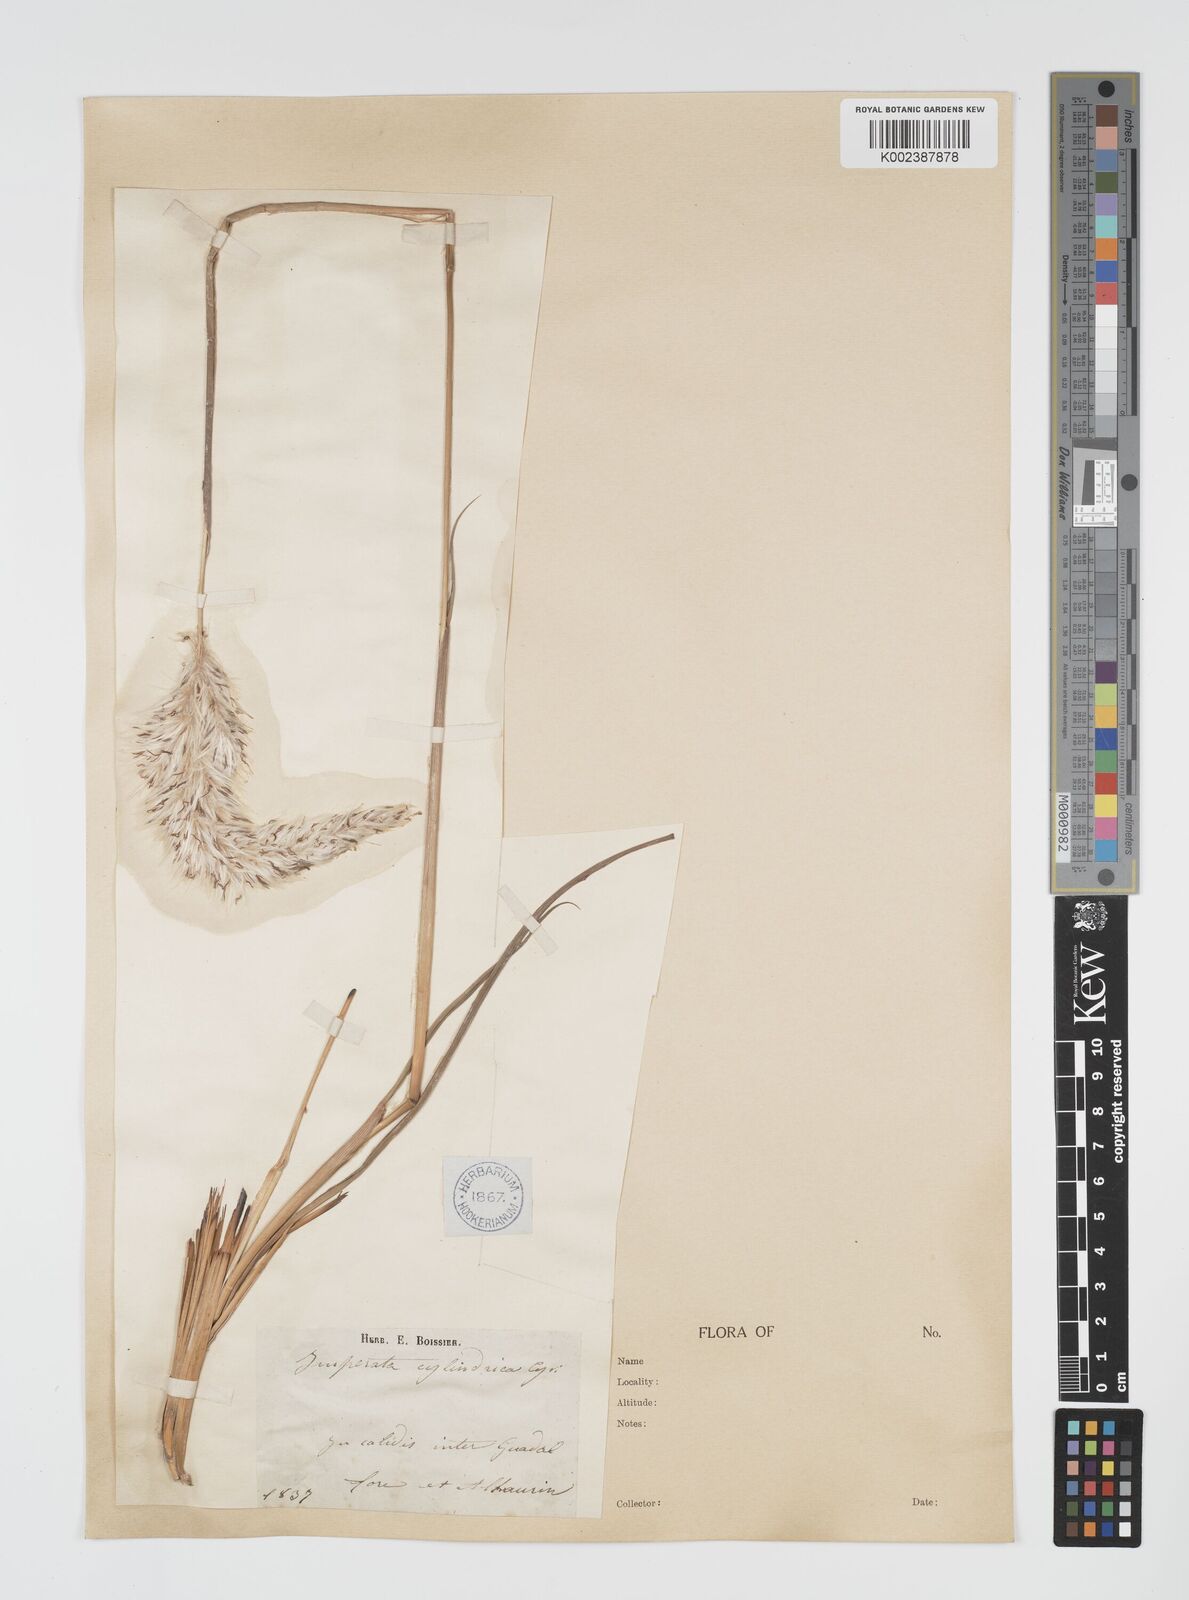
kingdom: Plantae
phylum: Tracheophyta
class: Liliopsida
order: Poales
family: Poaceae
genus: Imperata
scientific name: Imperata cylindrica
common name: Cogongrass
